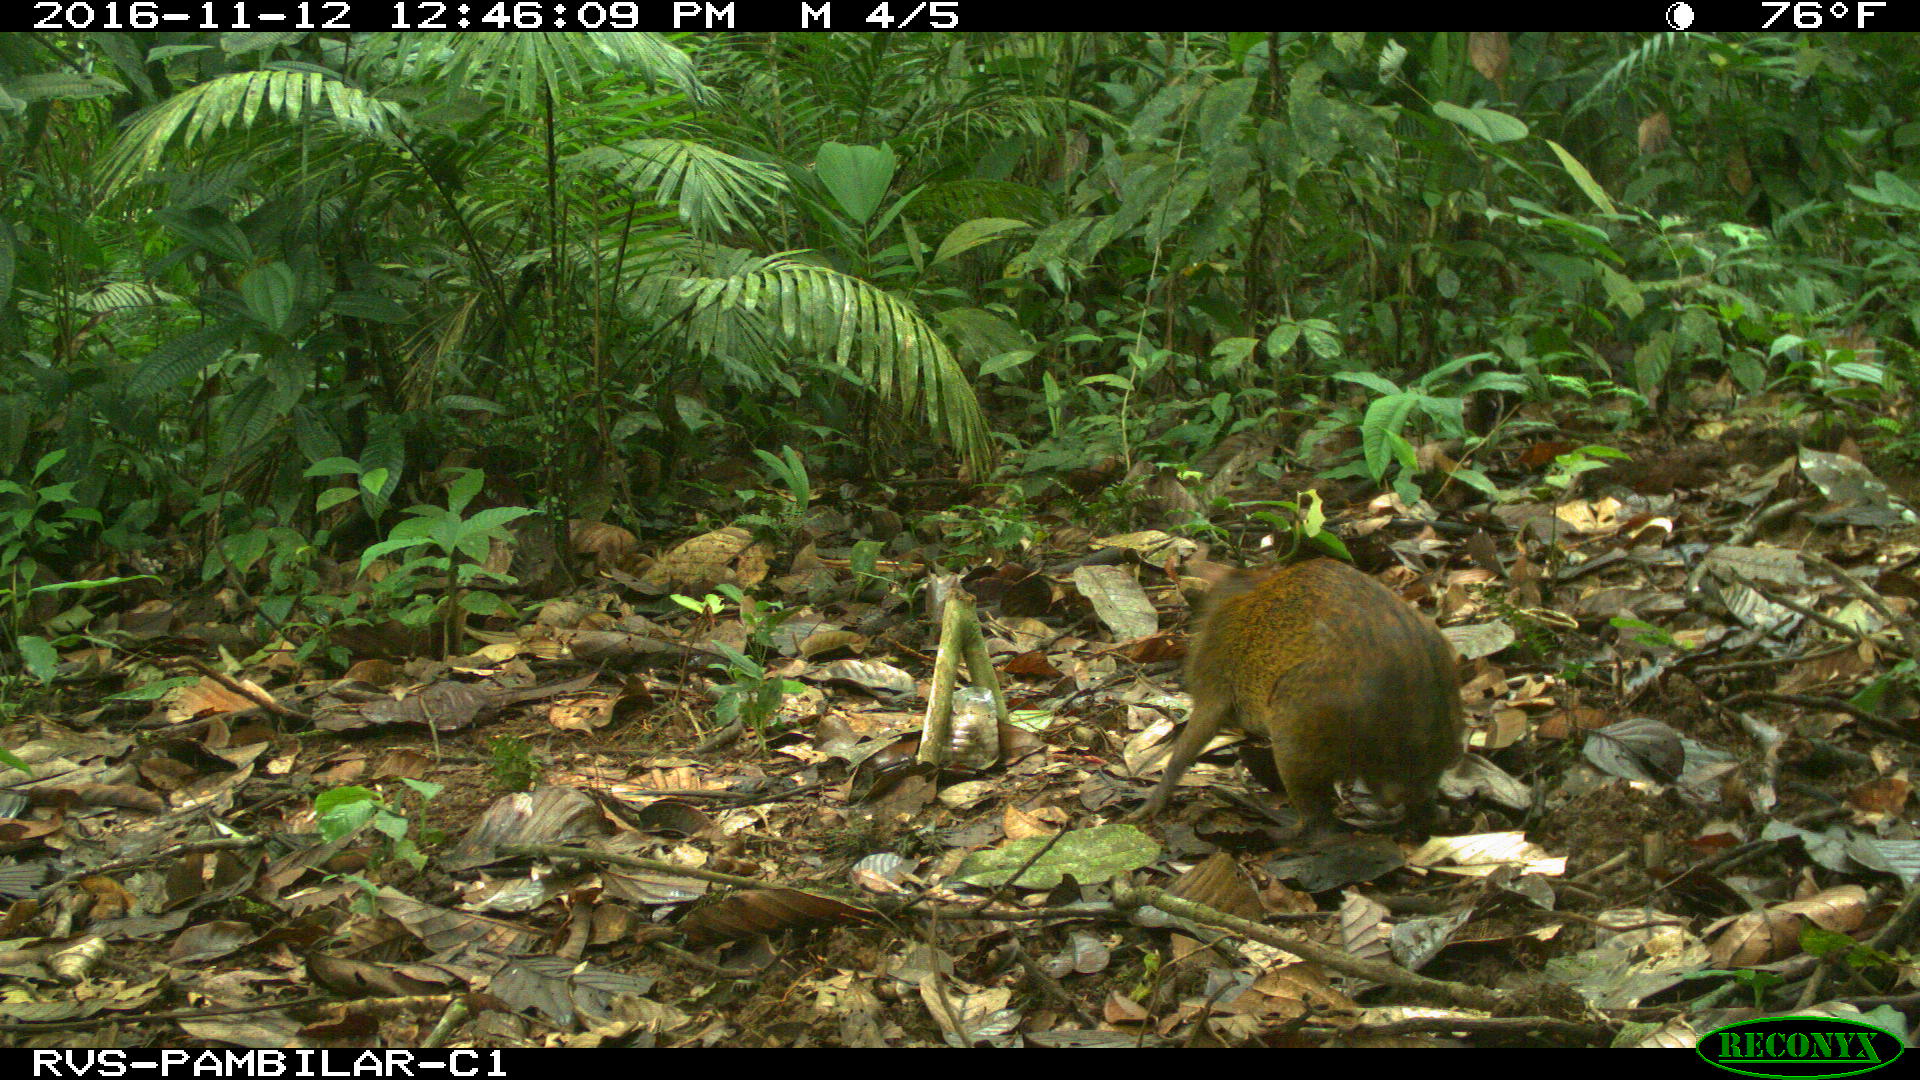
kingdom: Animalia
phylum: Chordata
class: Mammalia
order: Rodentia
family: Dasyproctidae
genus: Dasyprocta
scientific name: Dasyprocta punctata
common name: Central american agouti
